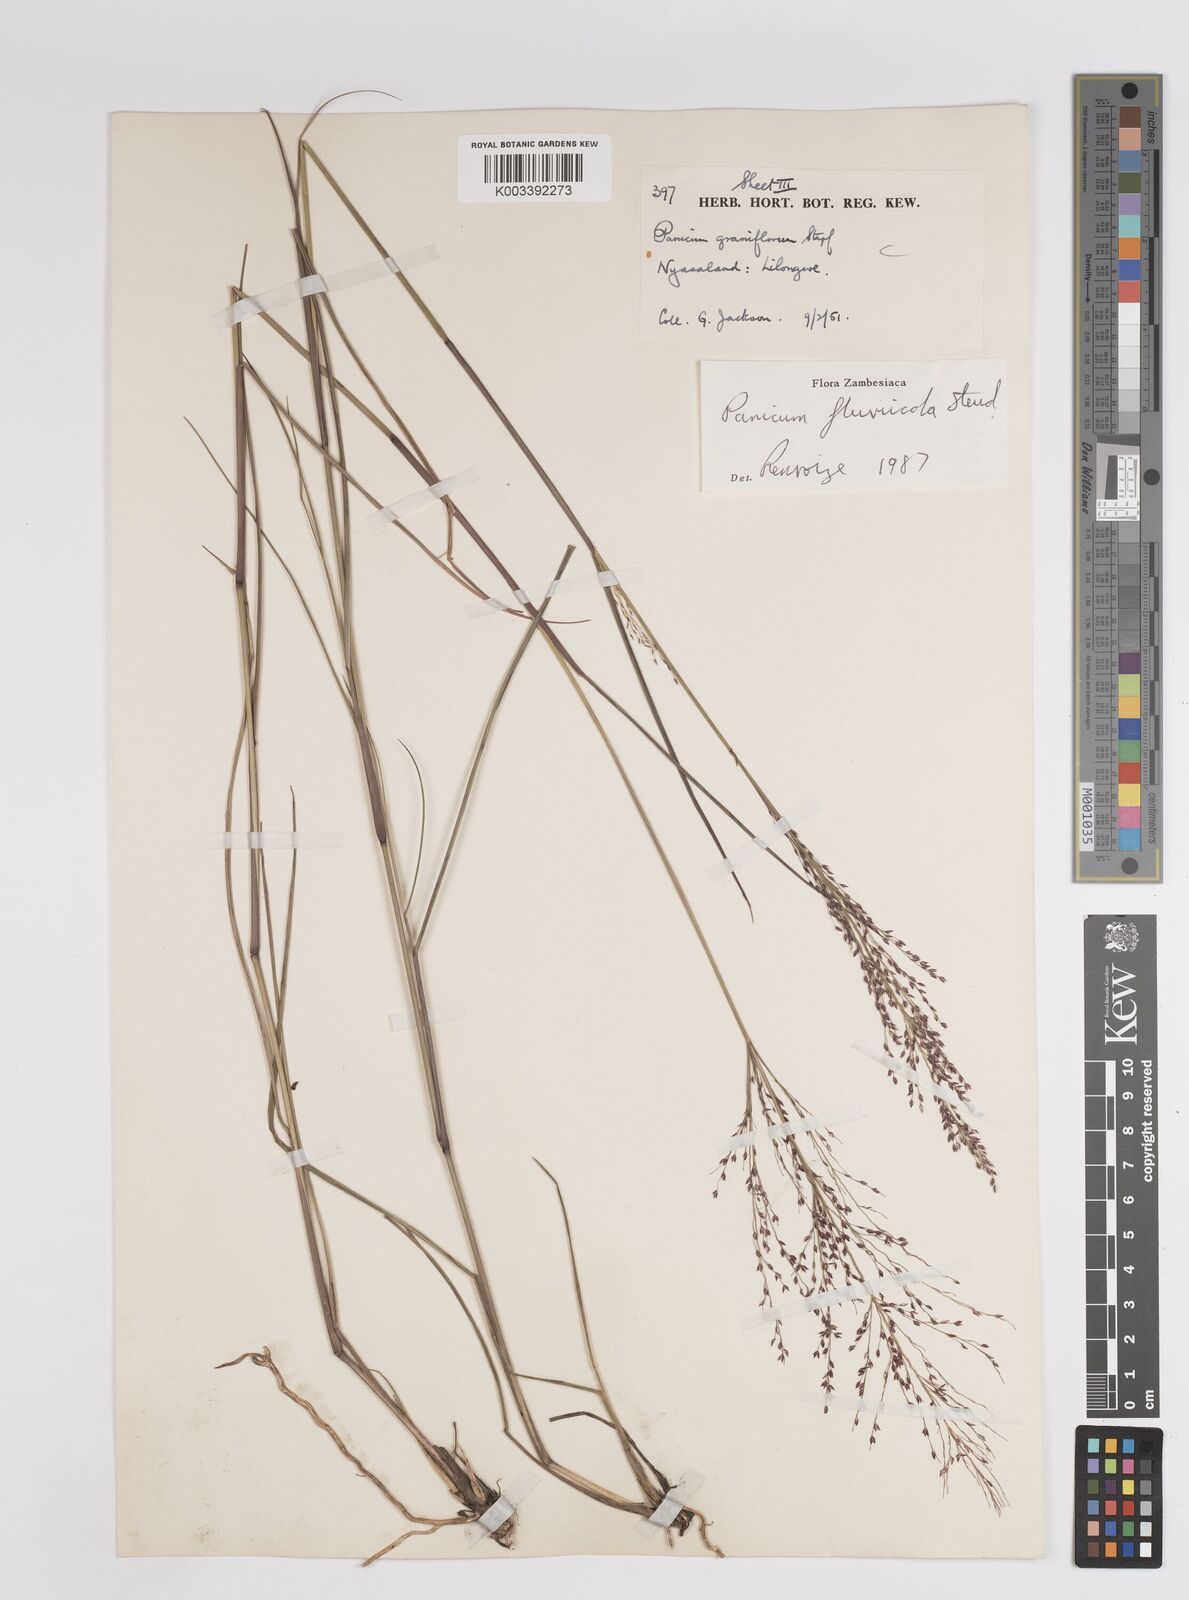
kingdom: Plantae
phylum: Tracheophyta
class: Liliopsida
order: Poales
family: Poaceae
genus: Panicum
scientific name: Panicum fluviicola
